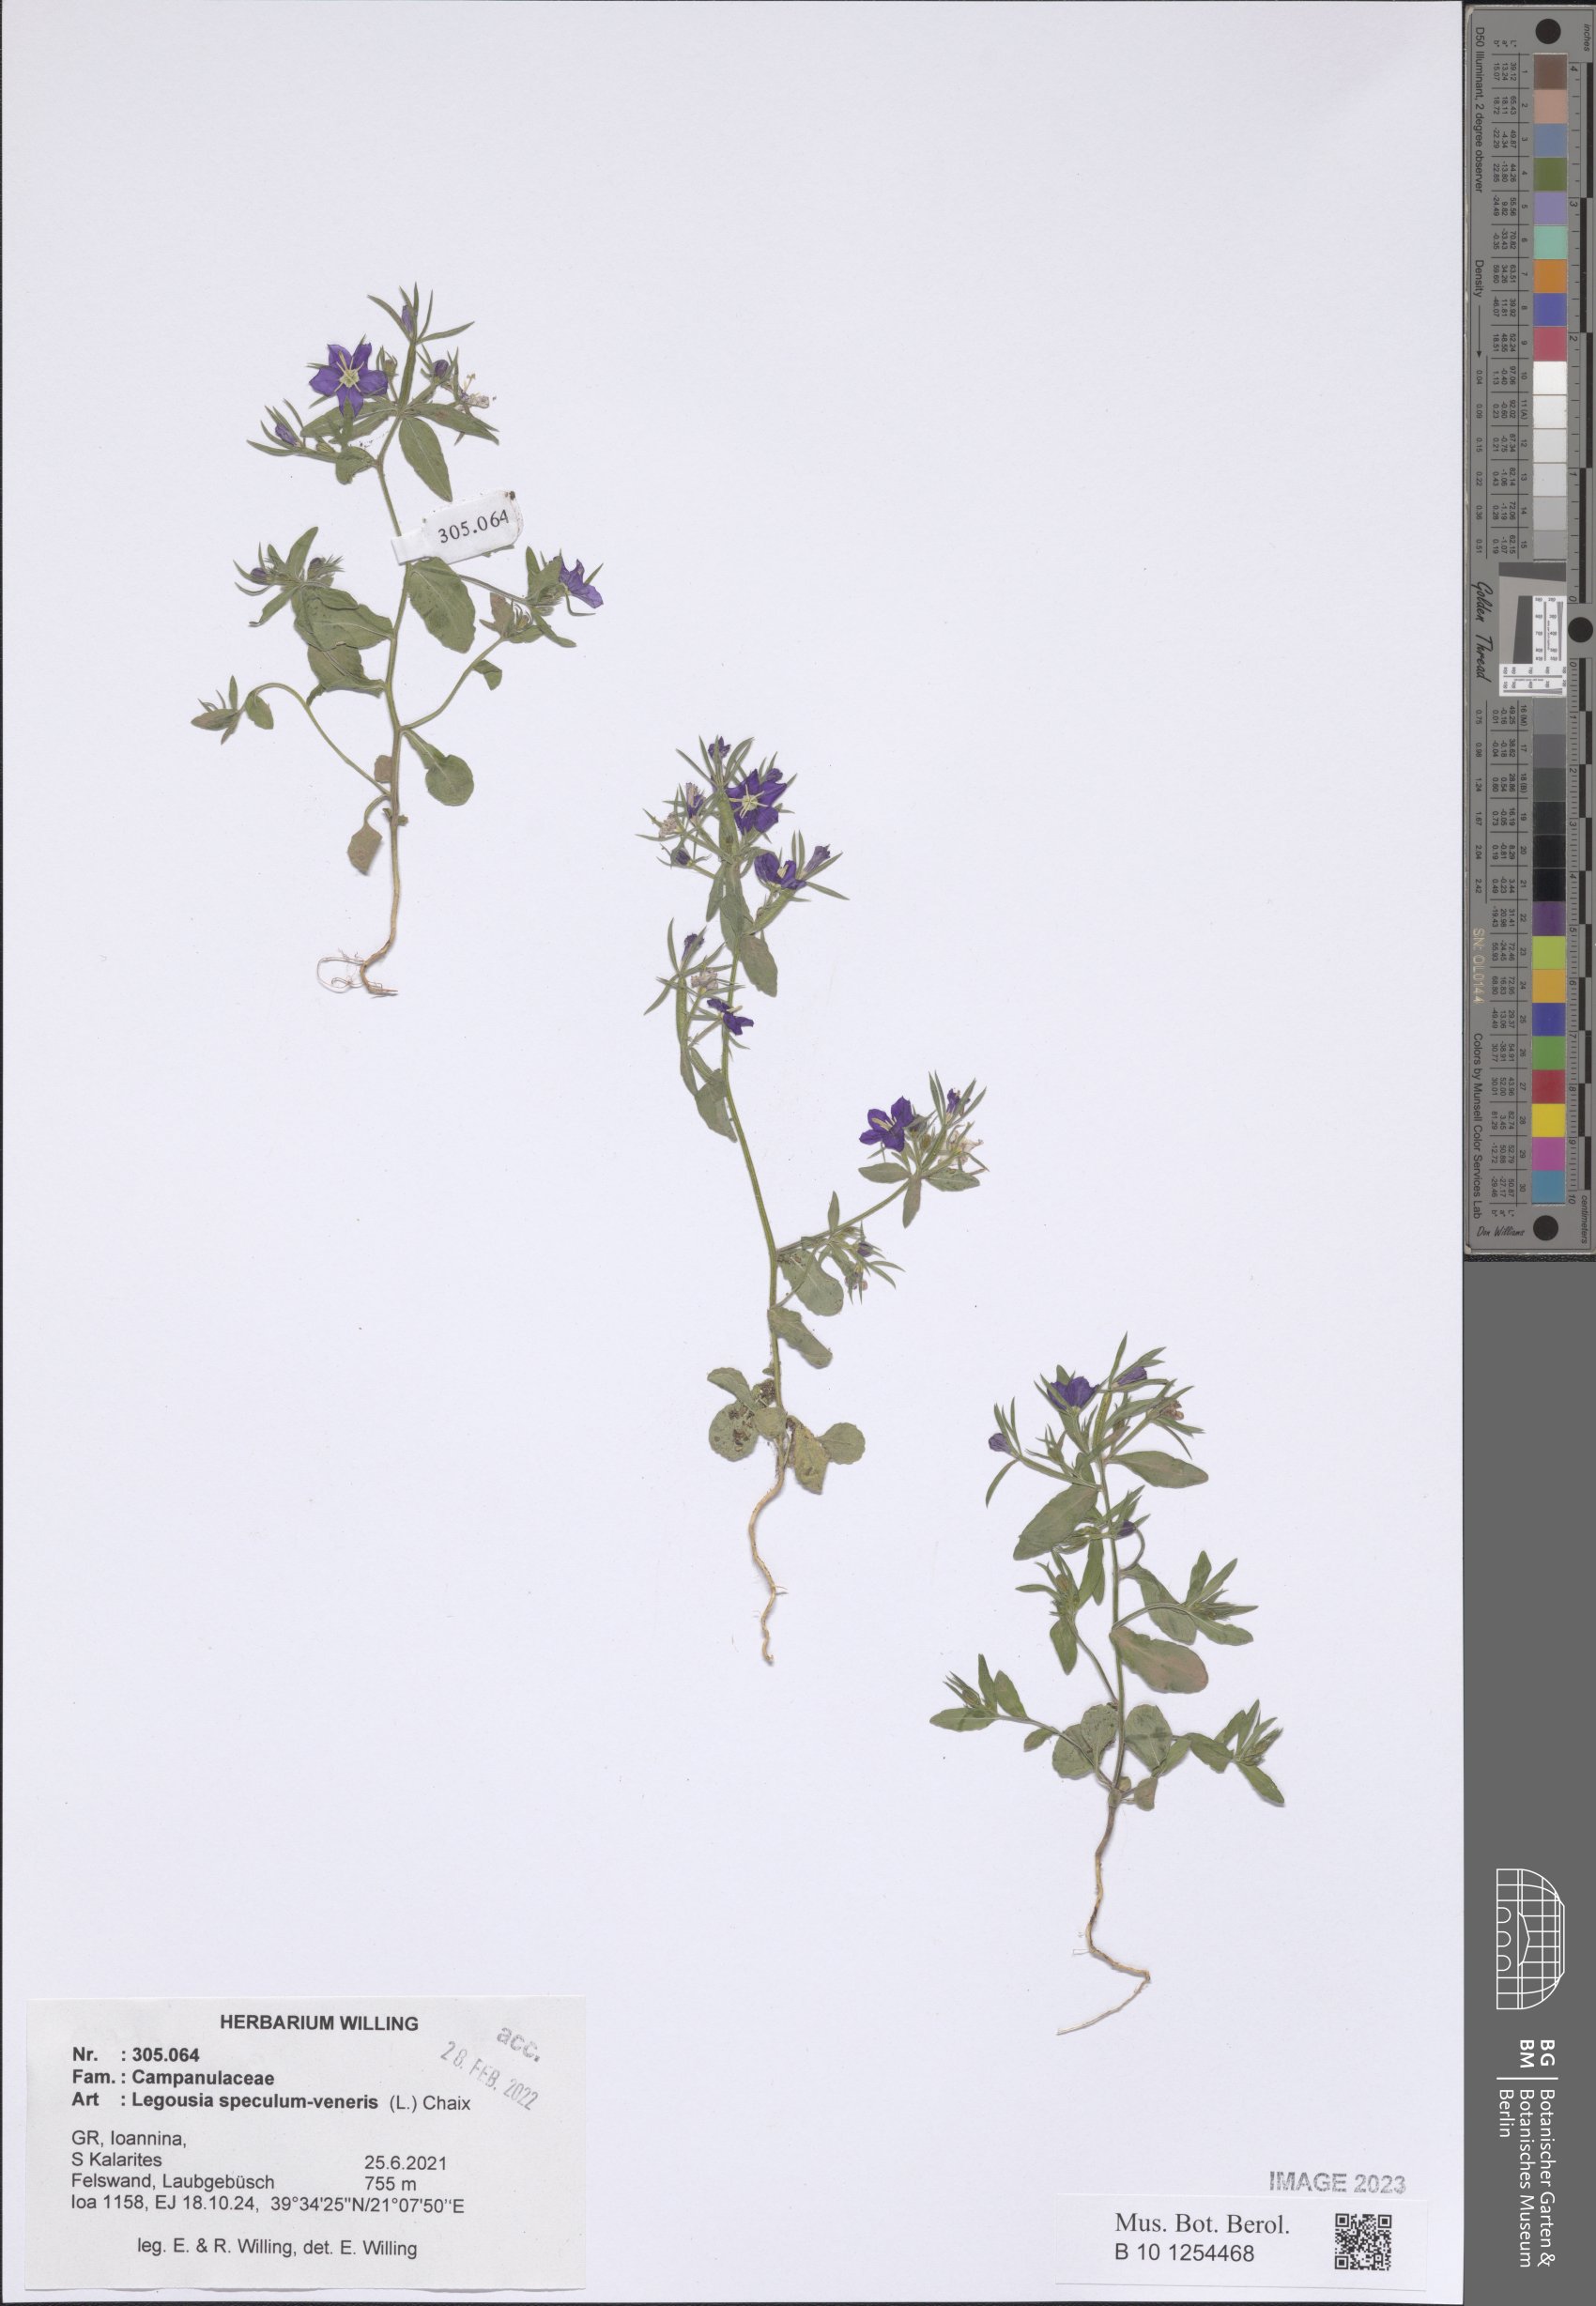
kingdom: Plantae
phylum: Tracheophyta
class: Magnoliopsida
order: Asterales
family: Campanulaceae
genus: Legousia
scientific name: Legousia speculum-veneris
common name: Large venus's-looking-glass
